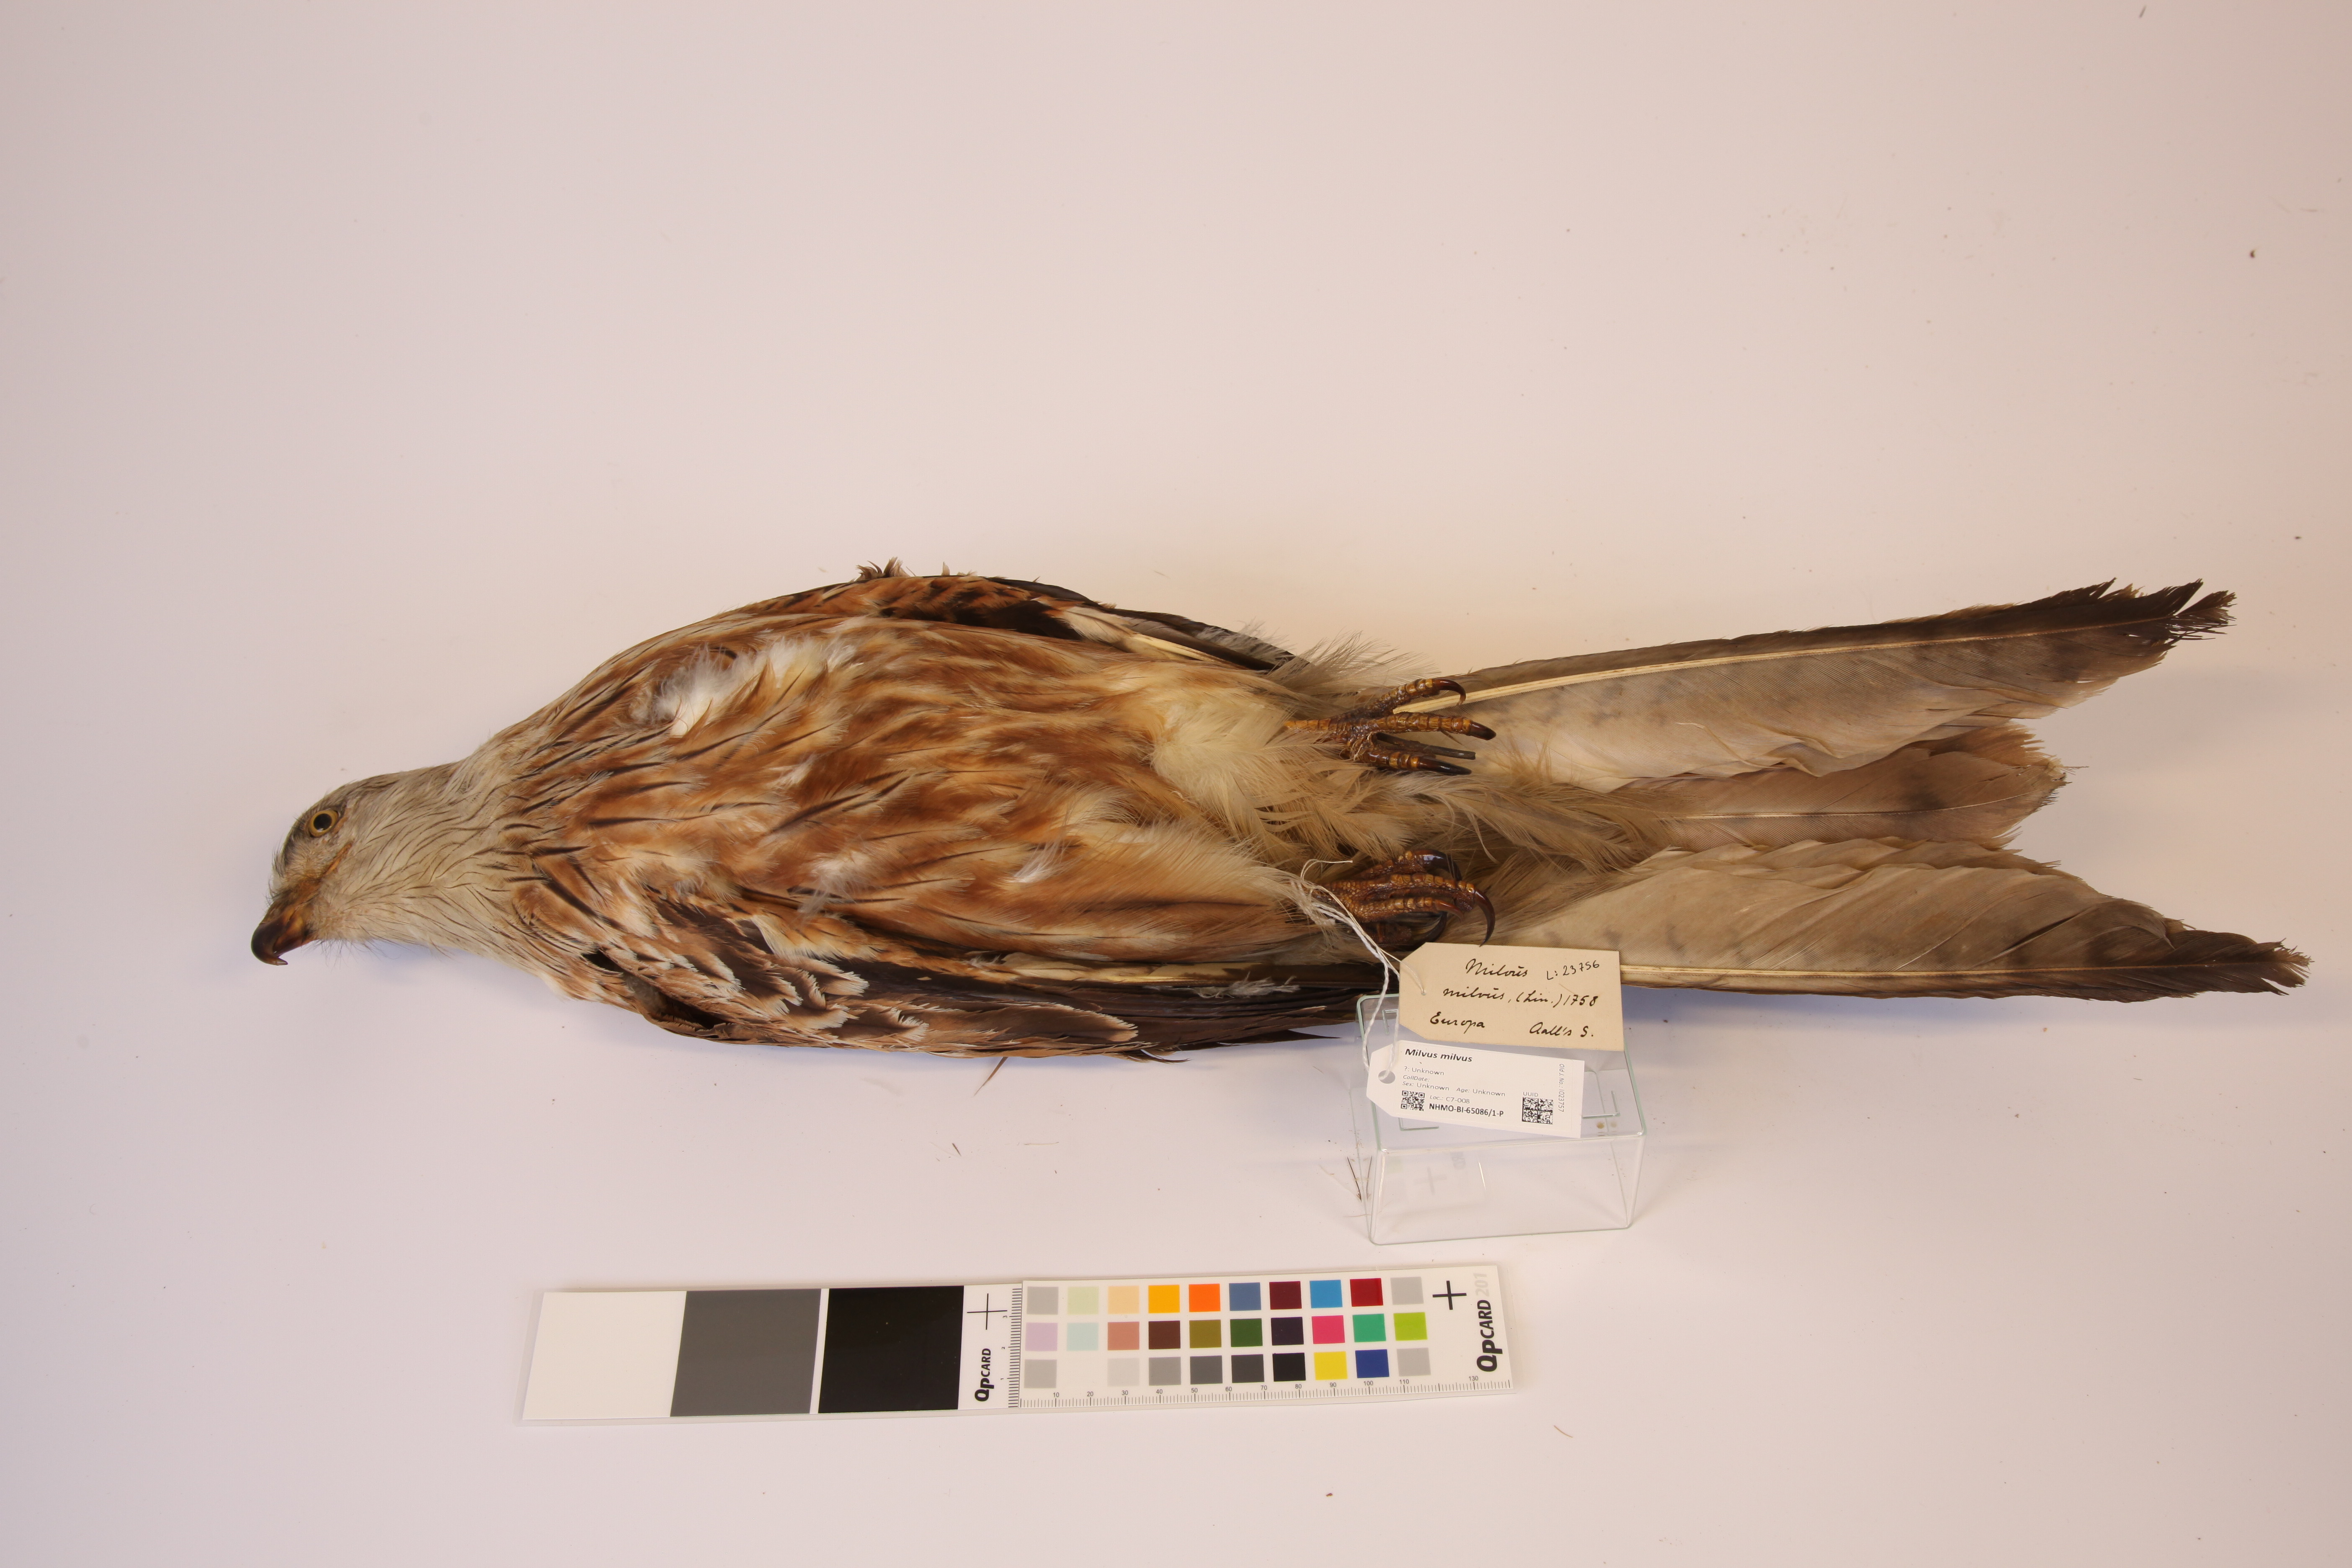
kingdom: Animalia
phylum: Chordata
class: Aves
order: Accipitriformes
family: Accipitridae
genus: Milvus
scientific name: Milvus milvus
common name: Red kite
